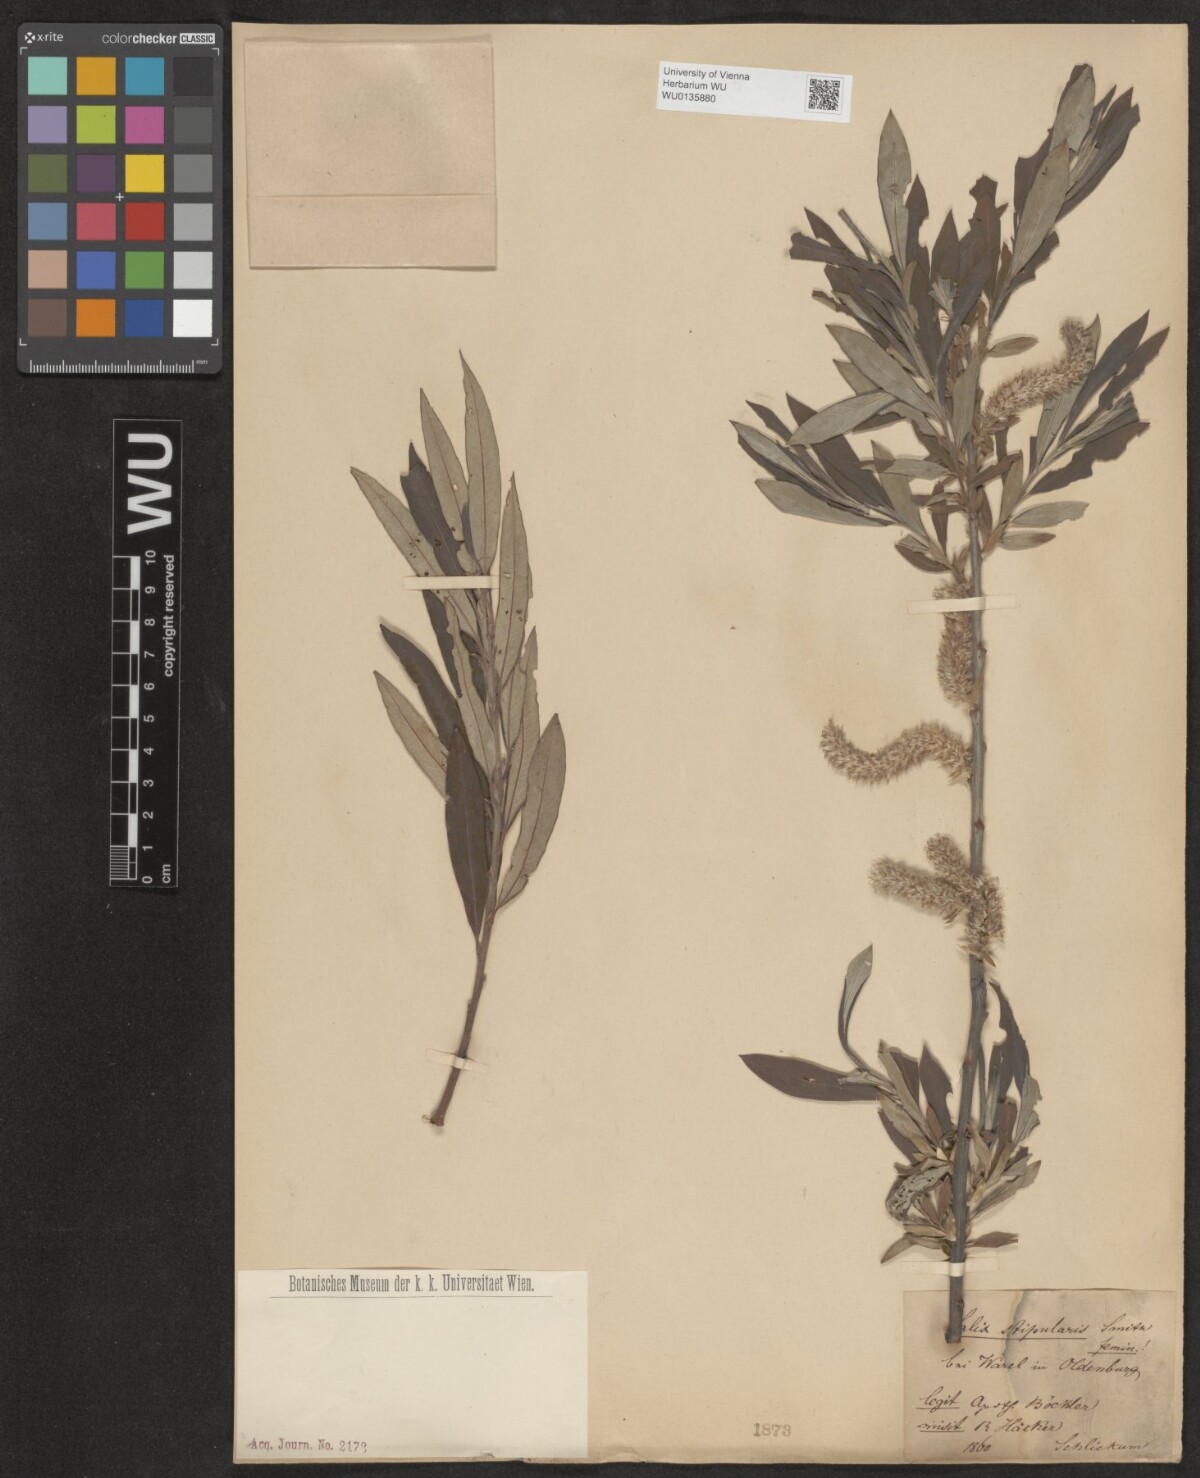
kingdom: Plantae
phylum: Tracheophyta
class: Magnoliopsida
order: Malpighiales
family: Salicaceae
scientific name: Salicaceae
